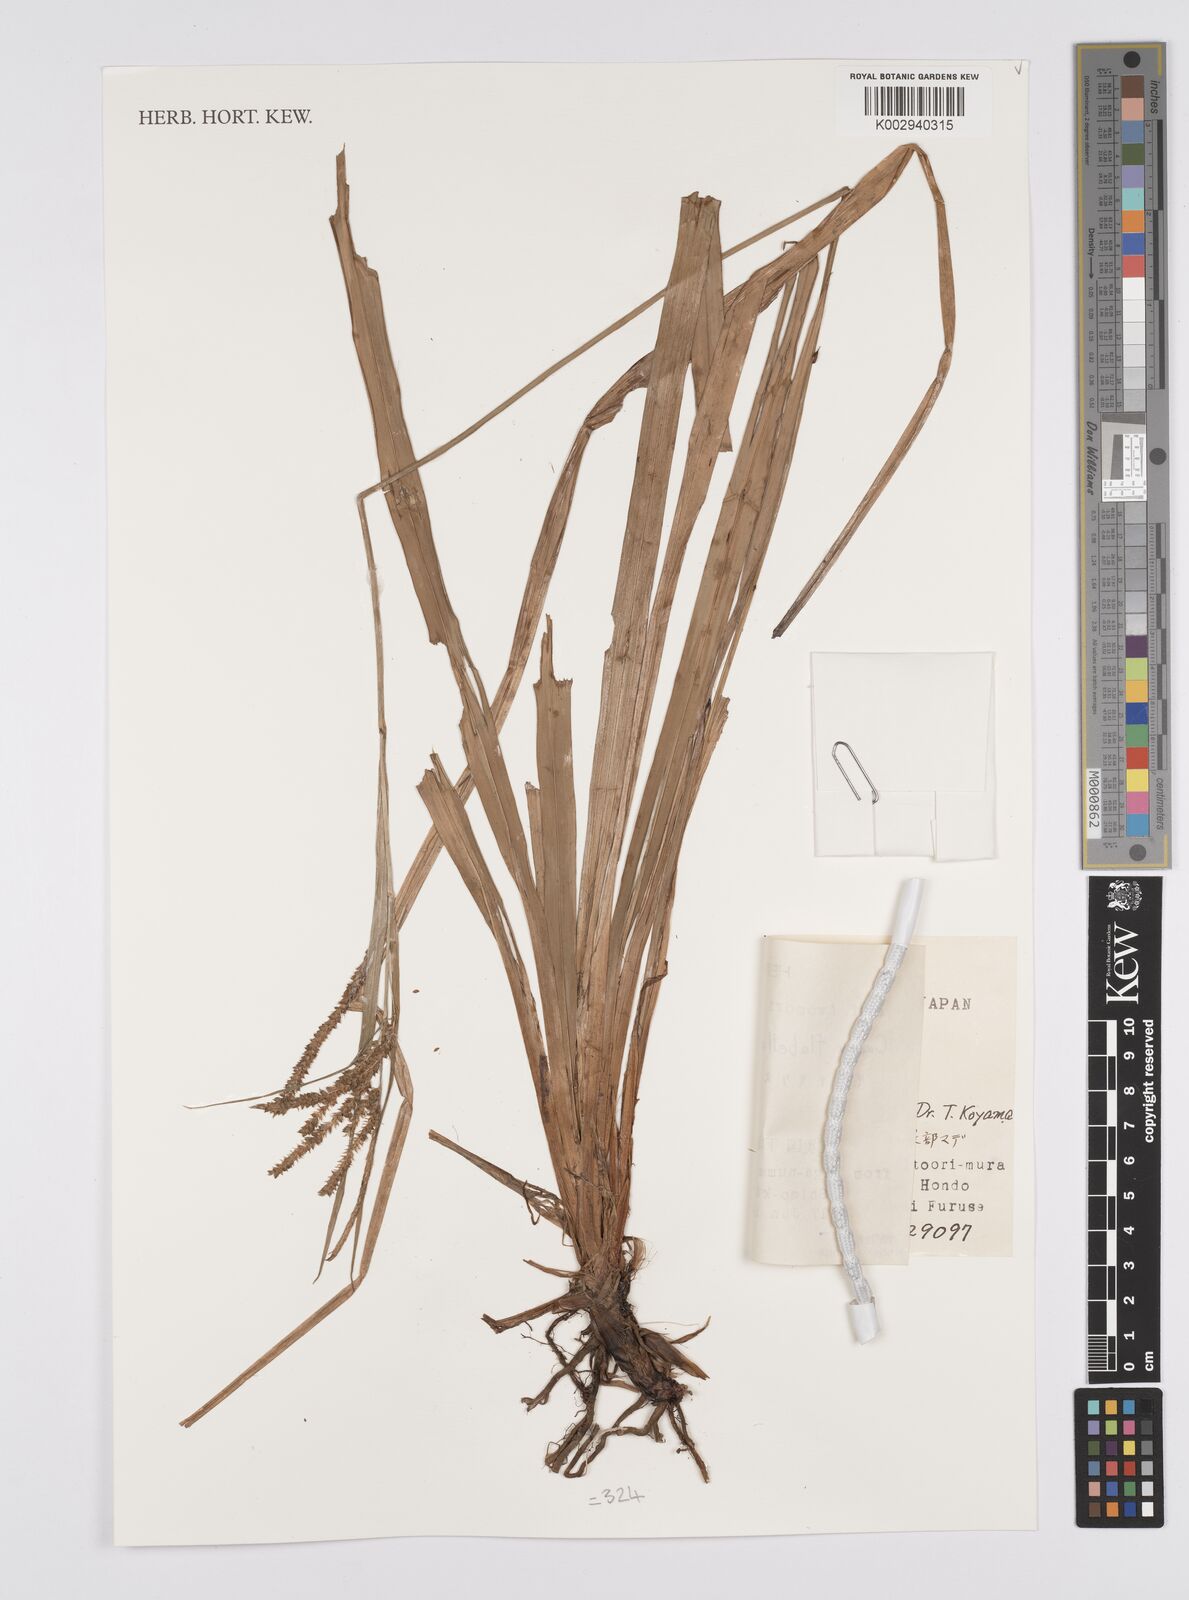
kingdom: Plantae
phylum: Tracheophyta
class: Liliopsida
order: Poales
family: Cyperaceae
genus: Carex
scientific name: Carex prescottiana
